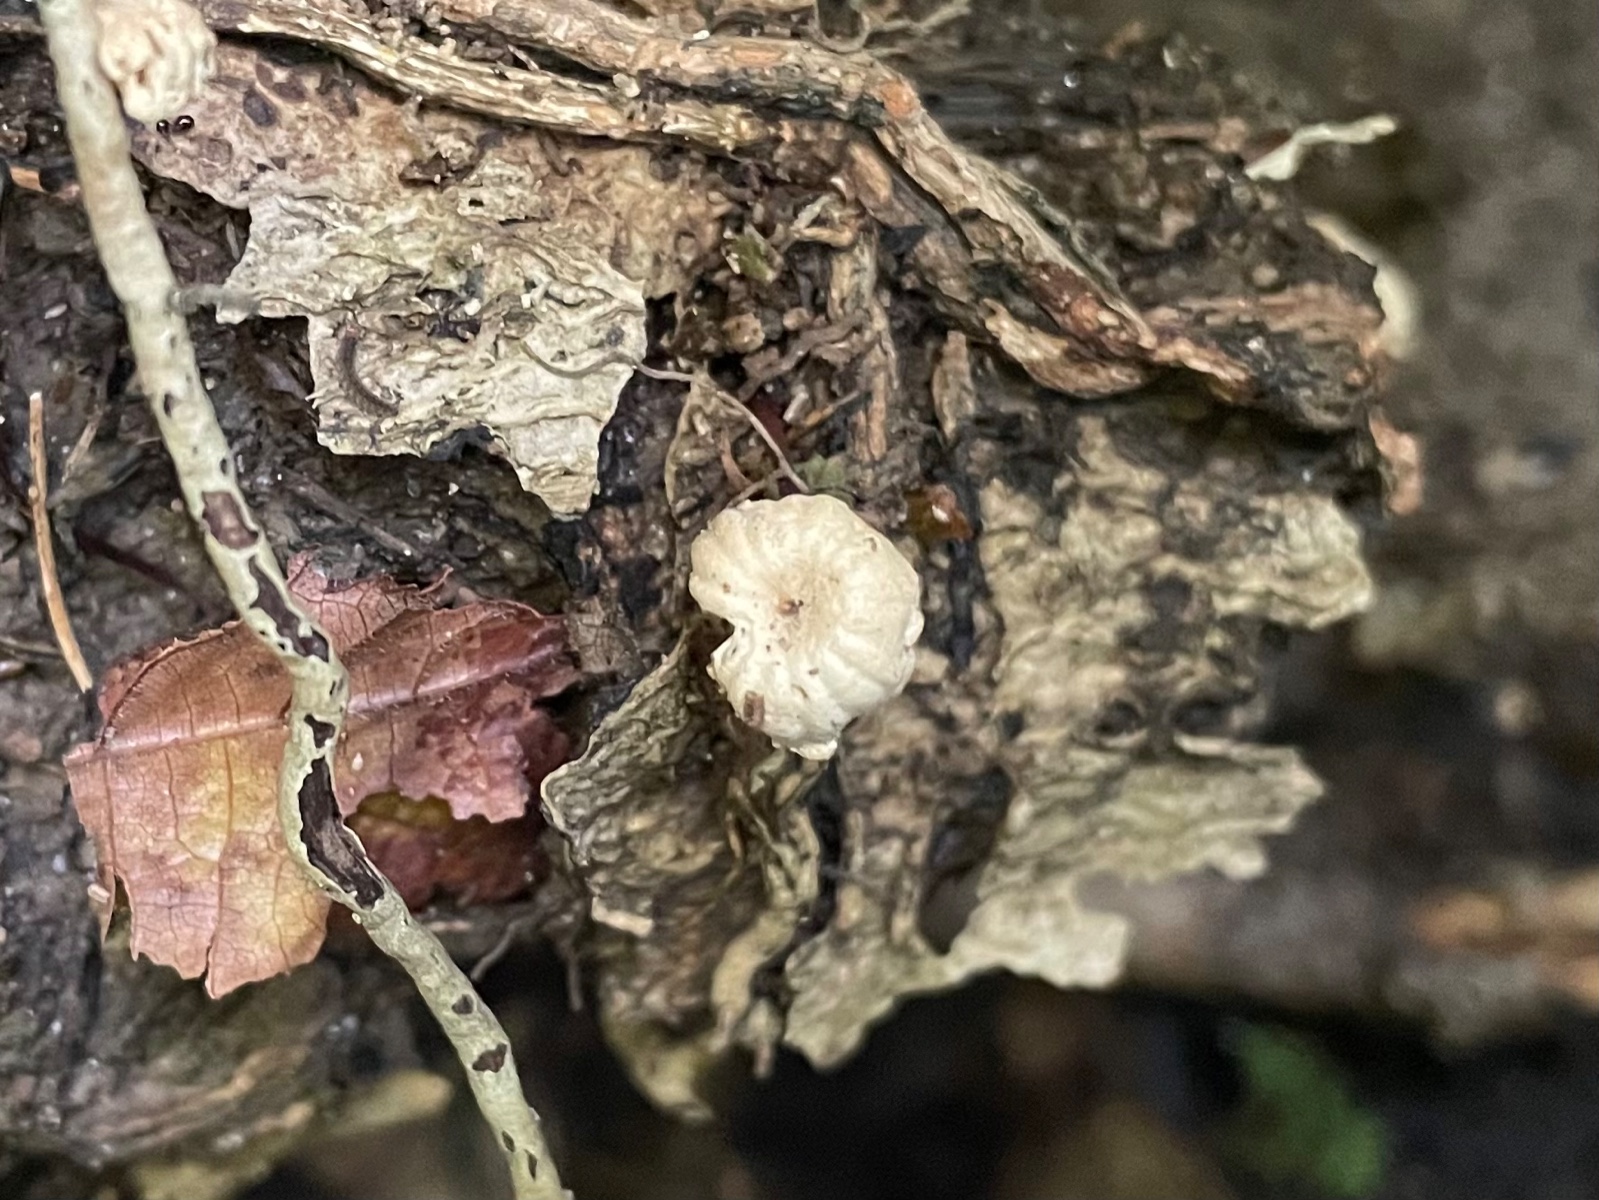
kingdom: Fungi
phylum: Basidiomycota
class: Agaricomycetes
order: Agaricales
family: Marasmiaceae
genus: Marasmius
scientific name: Marasmius rotula
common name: hjul-bruskhat
